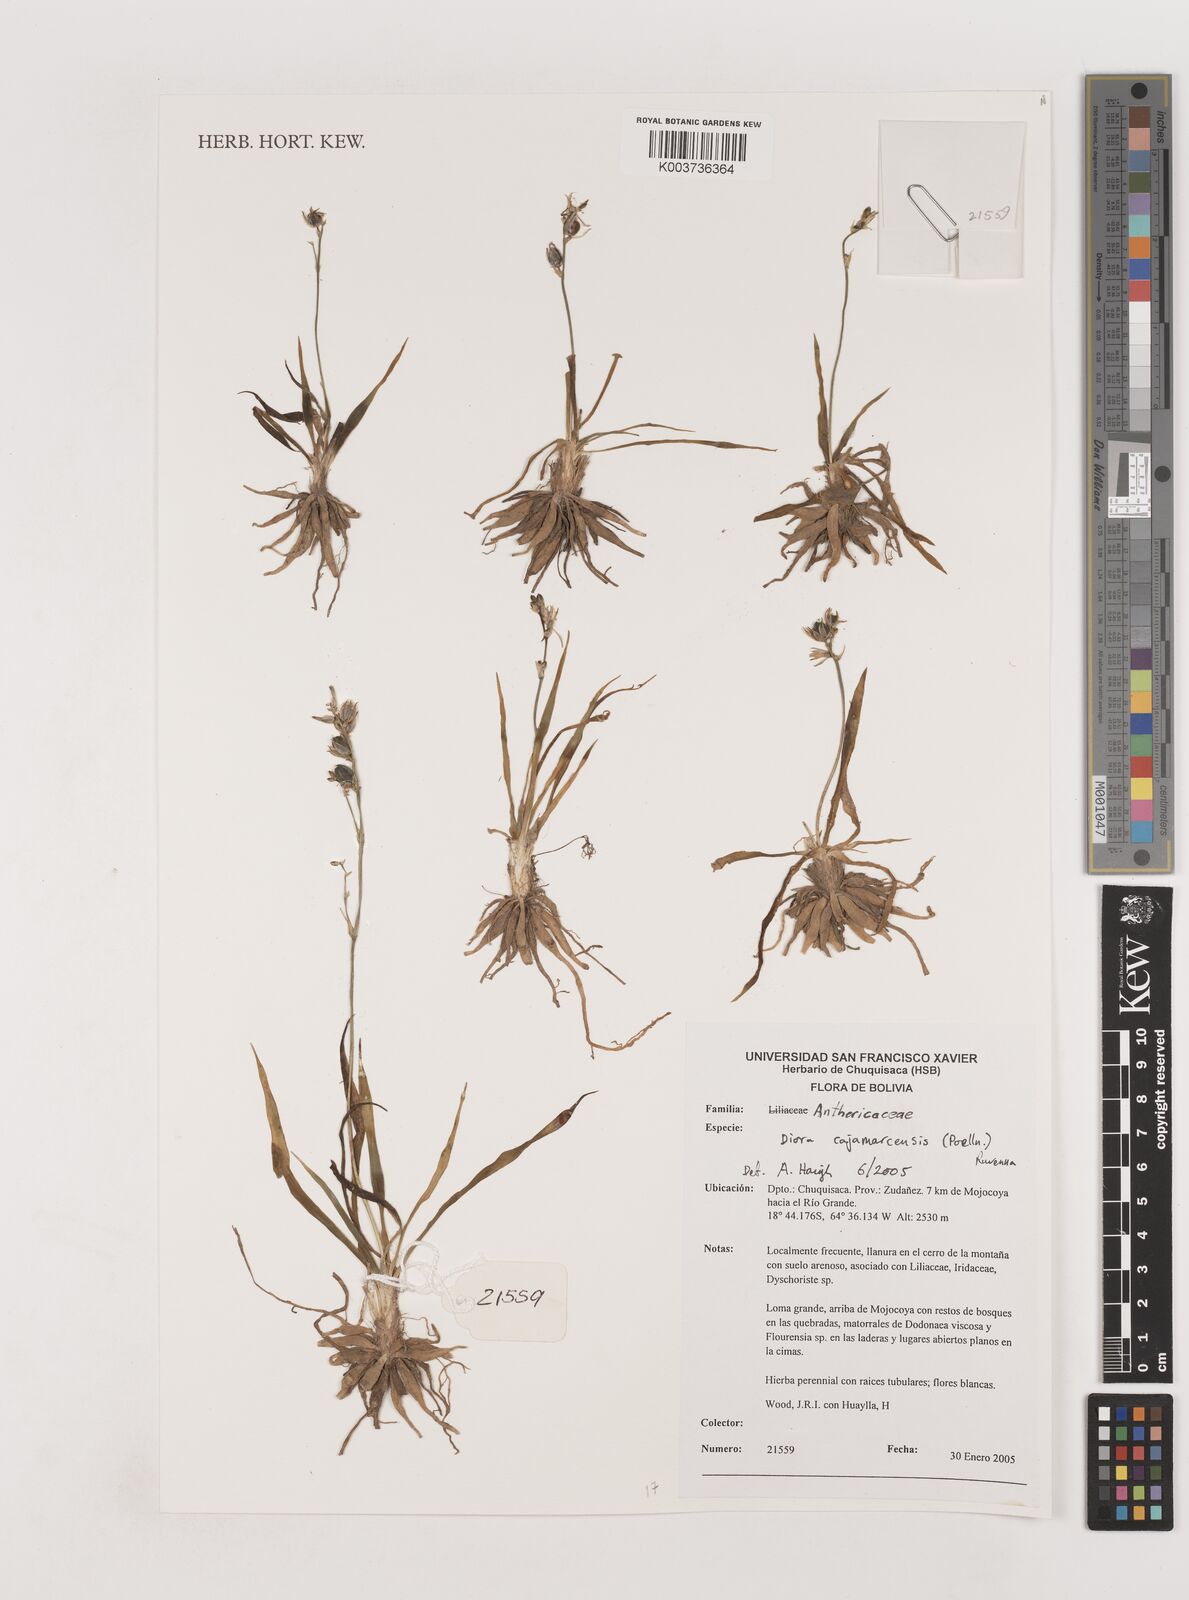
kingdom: Plantae
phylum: Tracheophyta
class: Liliopsida
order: Asparagales
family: Asparagaceae
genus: Diora
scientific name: Diora cajamarcaensis
